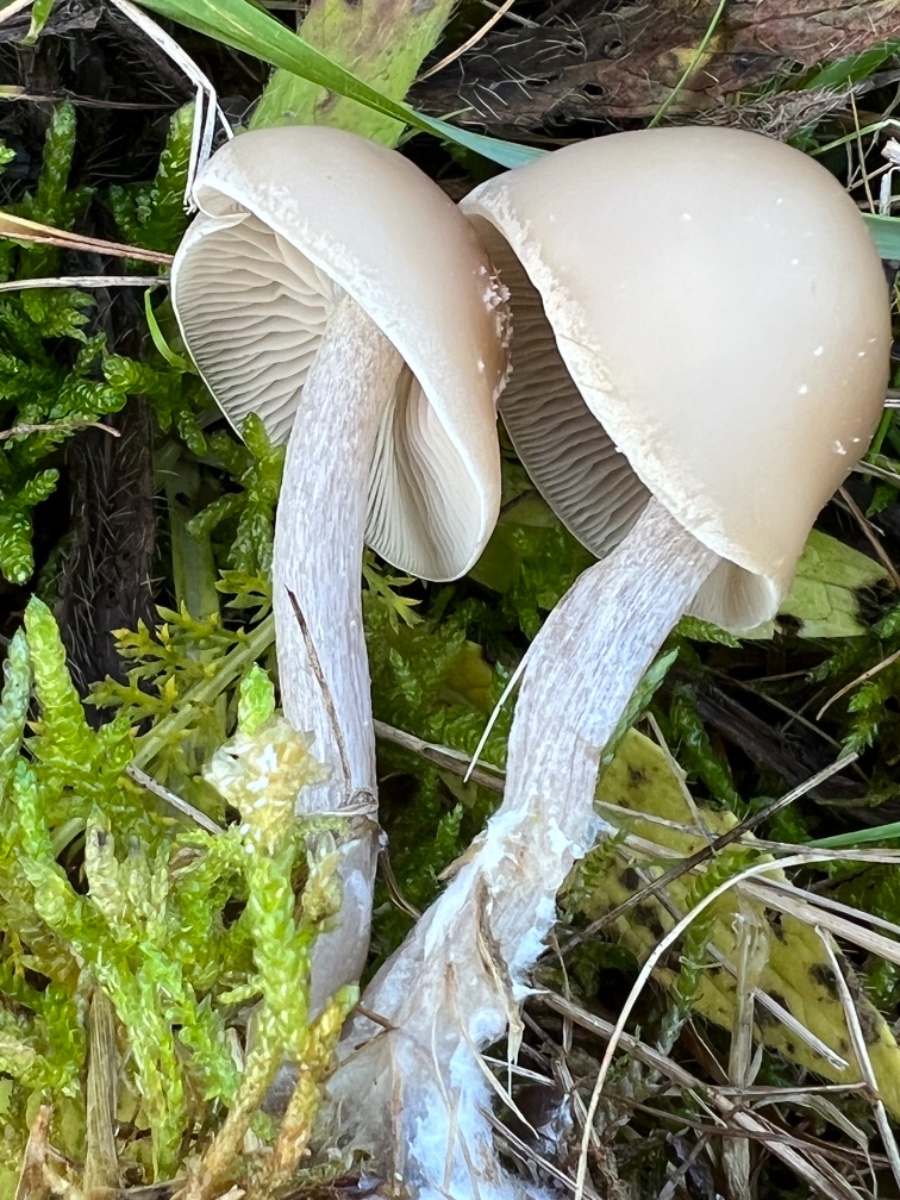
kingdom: Fungi
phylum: Basidiomycota
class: Agaricomycetes
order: Agaricales
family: Hymenogastraceae
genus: Hebeloma
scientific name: Hebeloma
